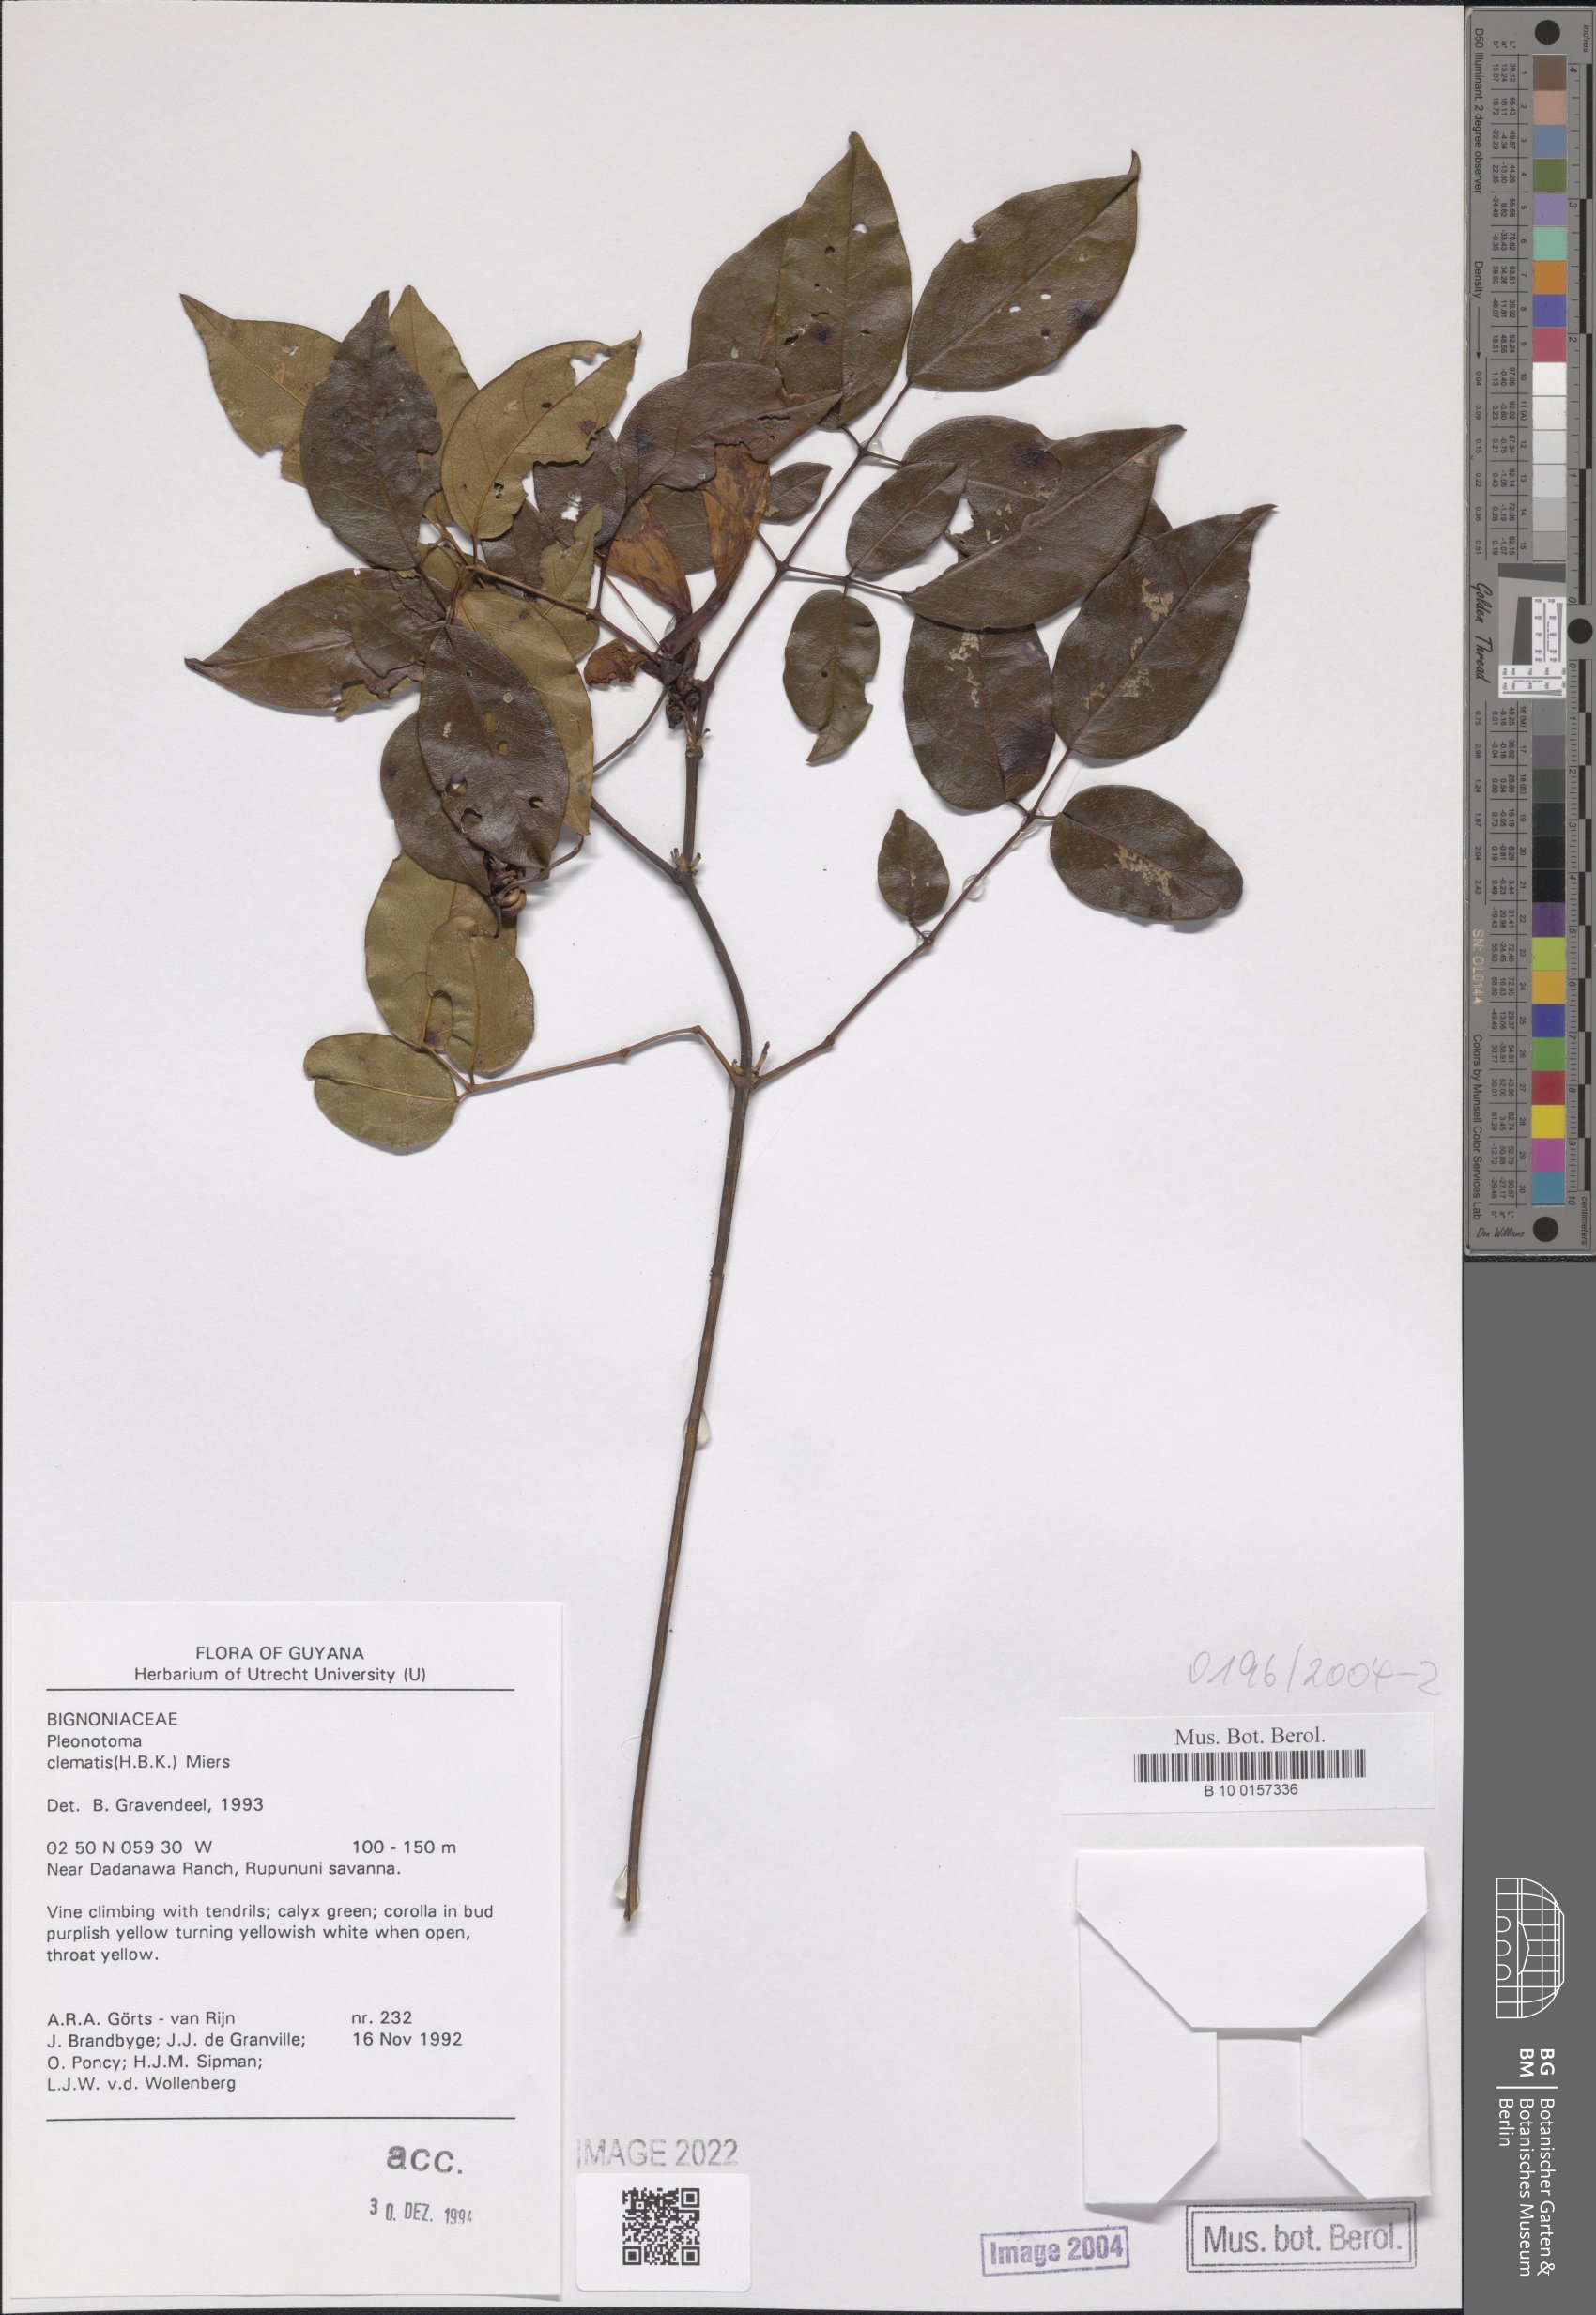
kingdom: Plantae
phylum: Tracheophyta
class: Magnoliopsida
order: Lamiales
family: Bignoniaceae
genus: Pleonotoma
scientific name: Pleonotoma clematis
